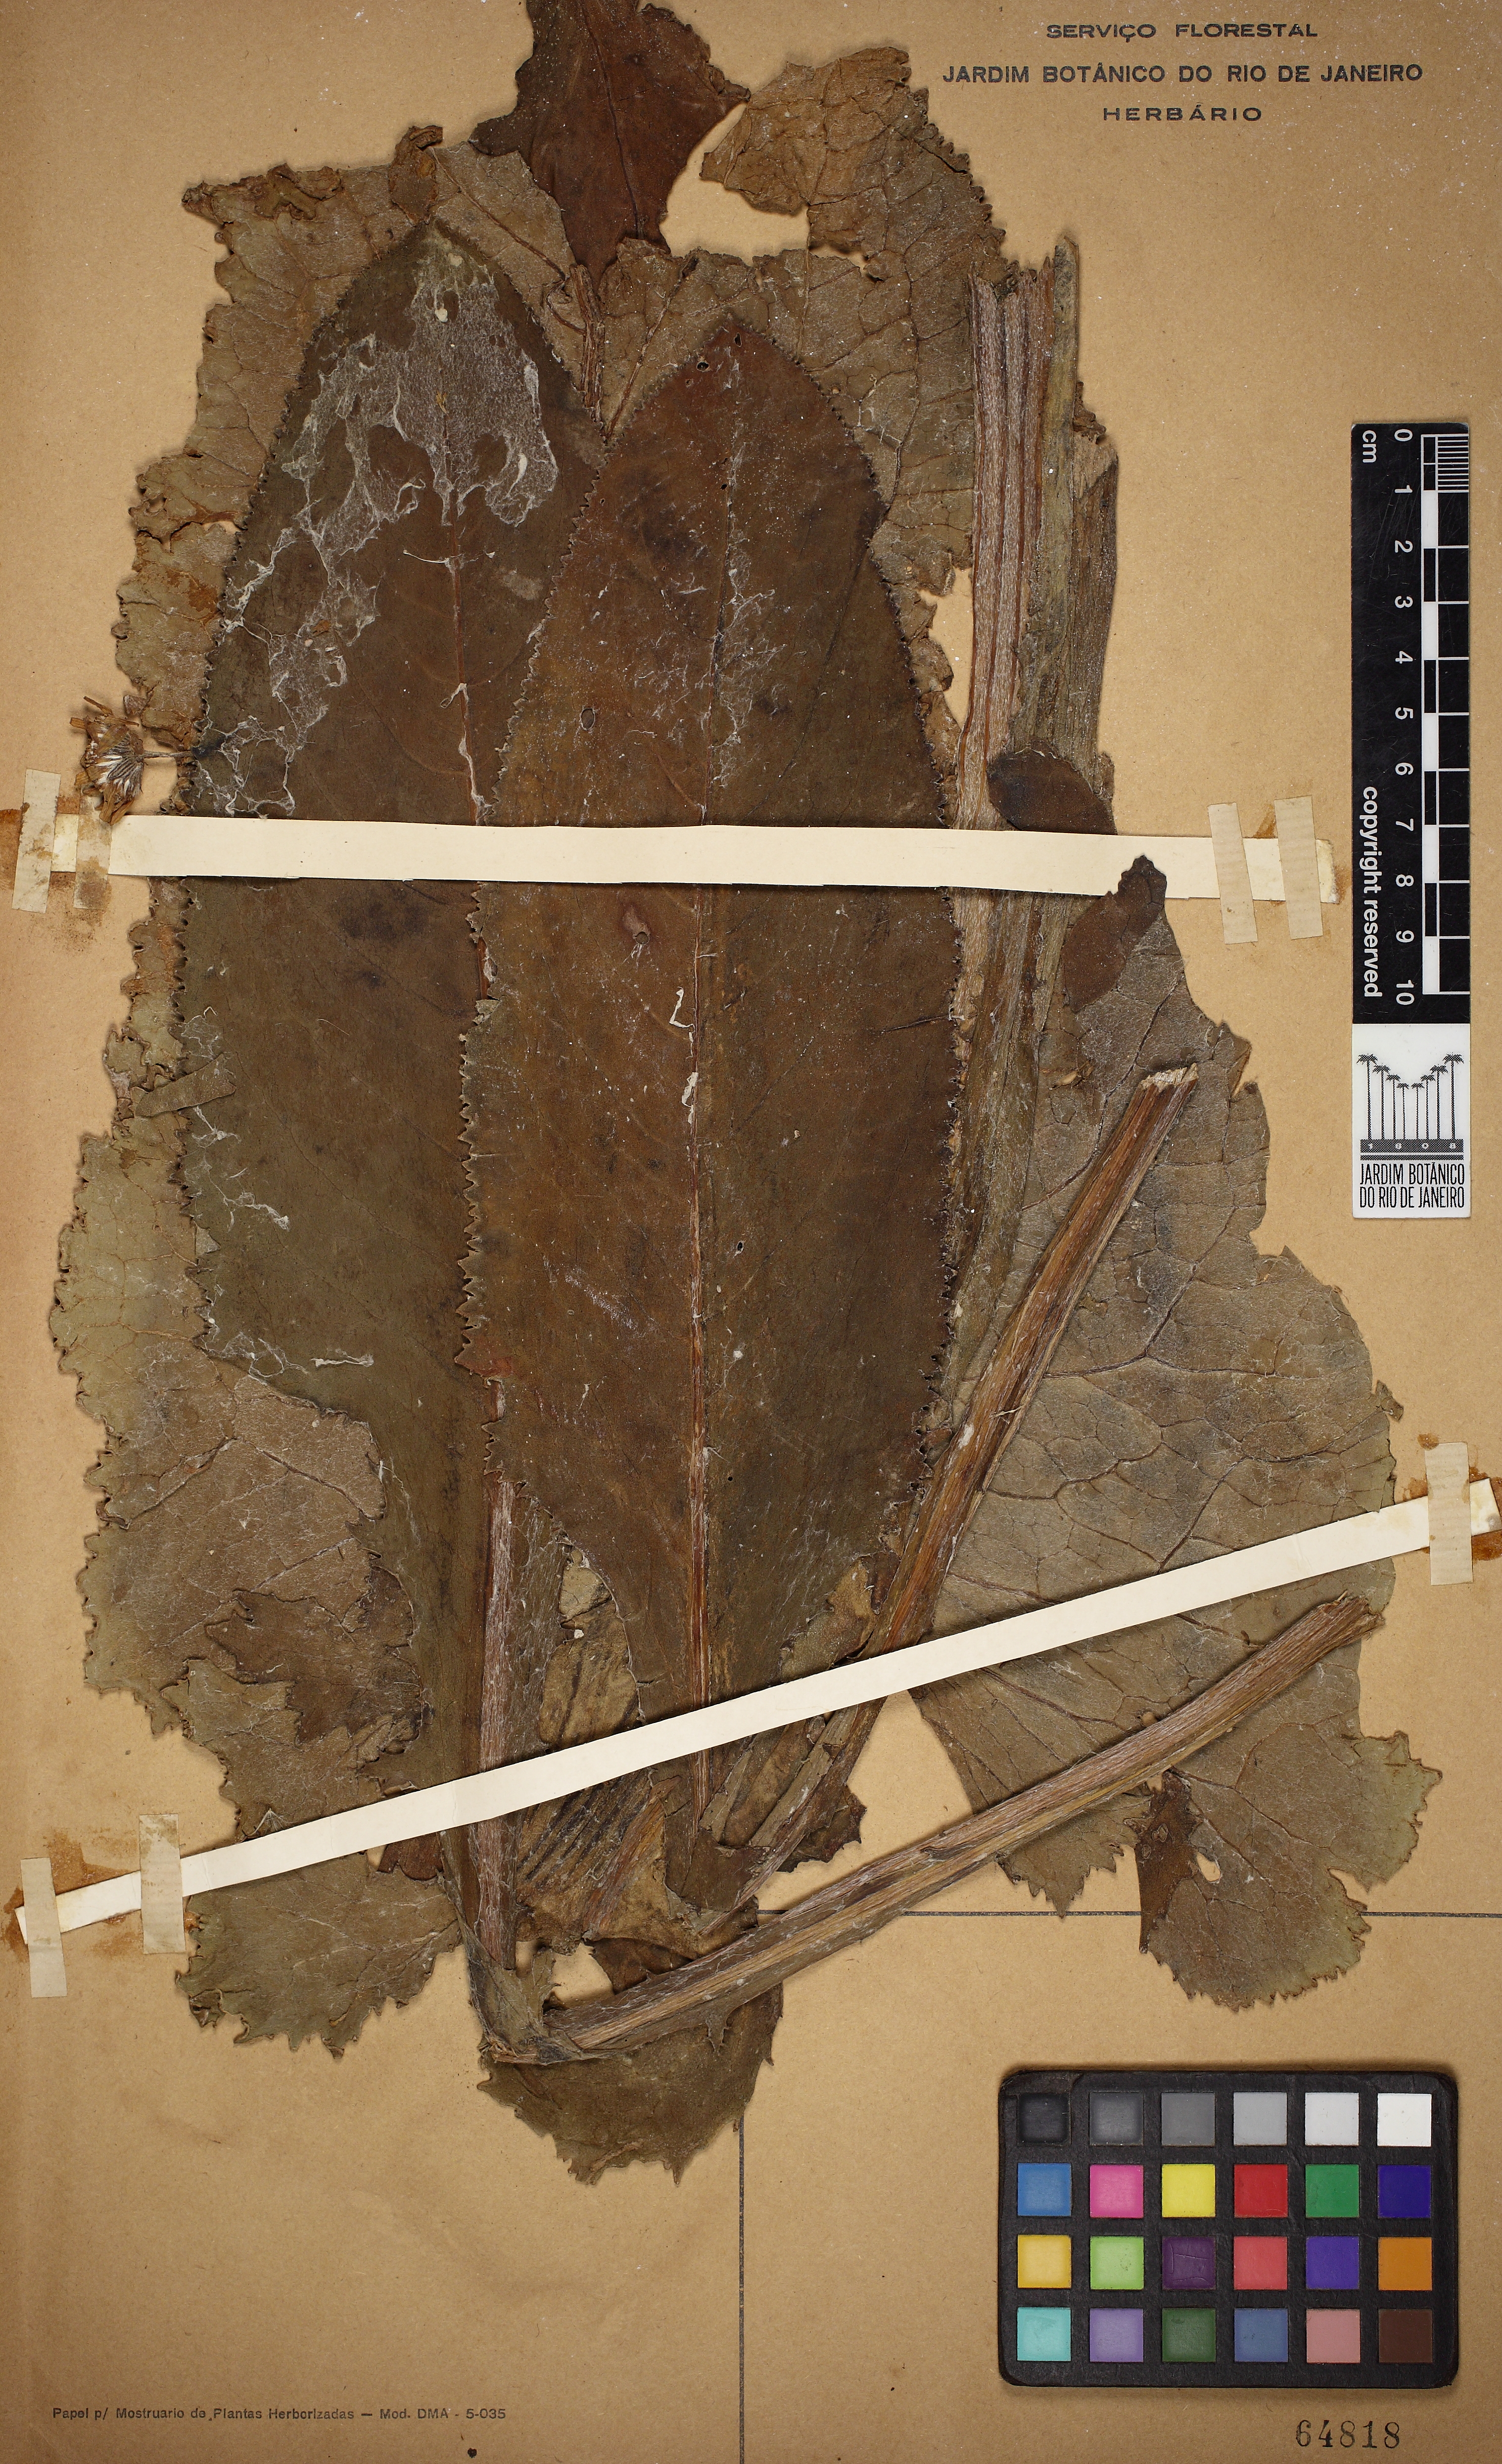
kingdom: Plantae
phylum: Tracheophyta
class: Magnoliopsida
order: Asterales
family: Asteraceae
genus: Senecio
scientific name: Senecio mattfeldianus
